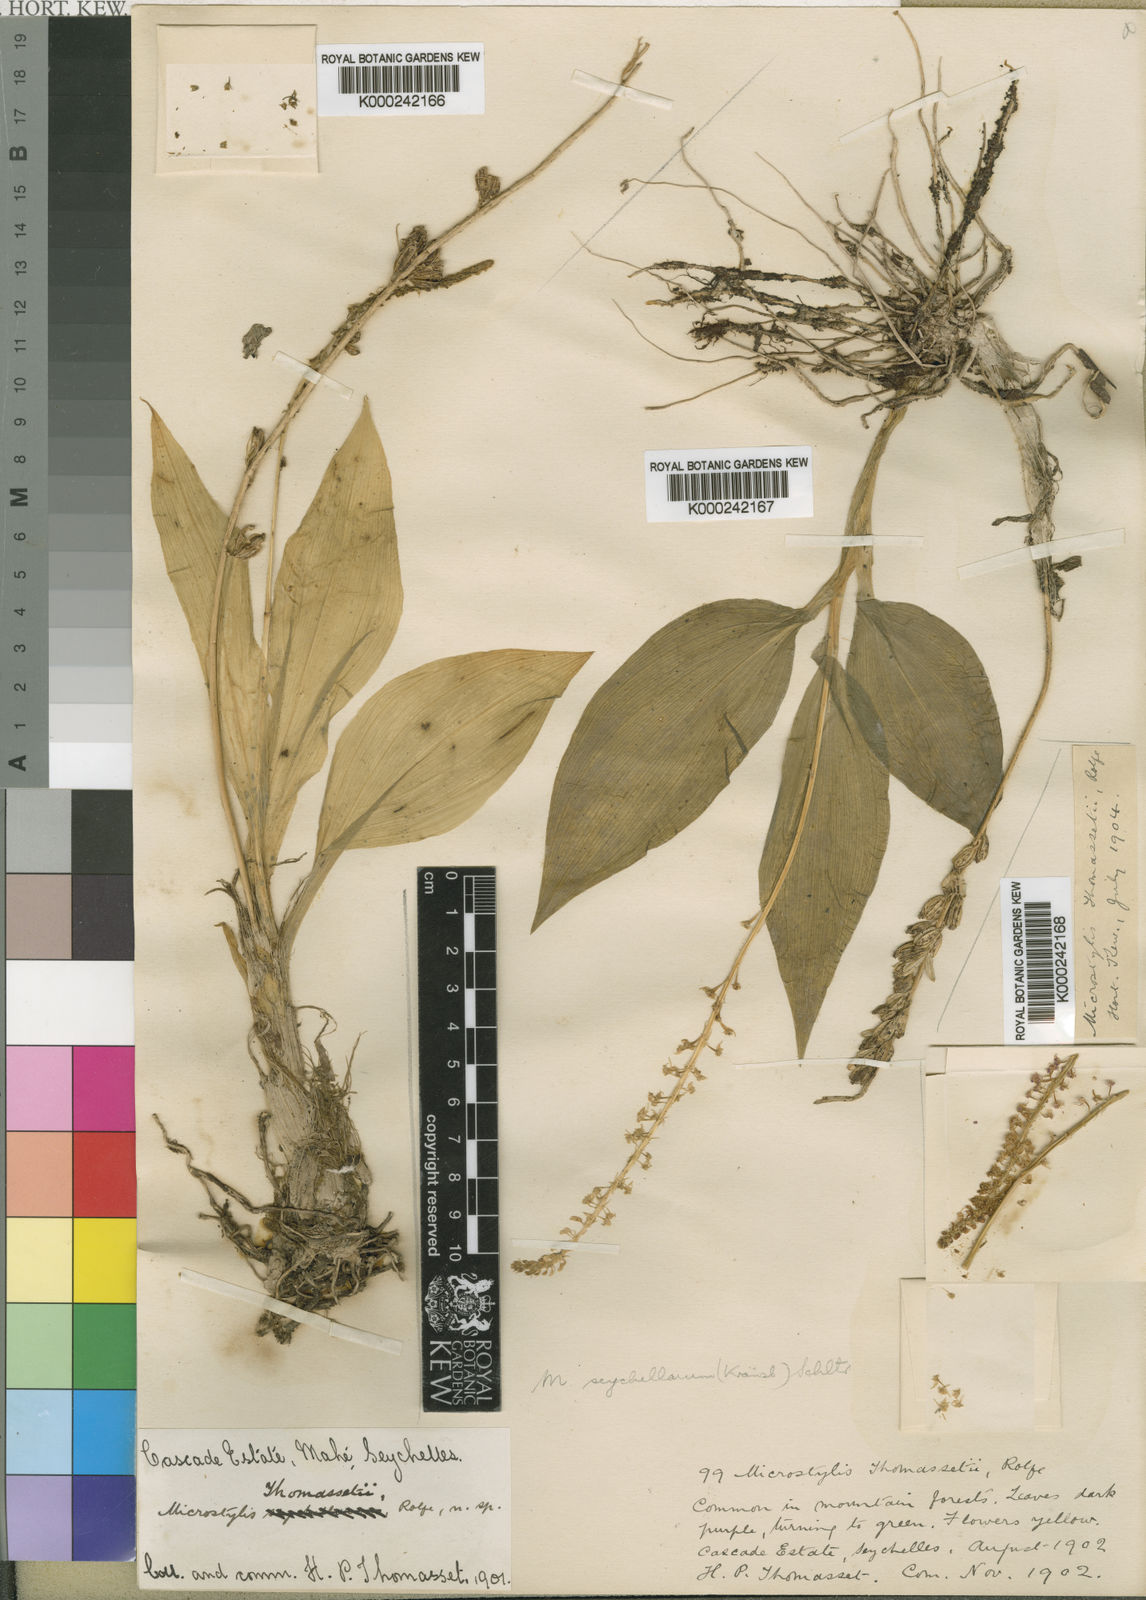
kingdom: Plantae
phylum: Tracheophyta
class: Liliopsida
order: Asparagales
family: Orchidaceae
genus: Malaxis
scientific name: Malaxis
